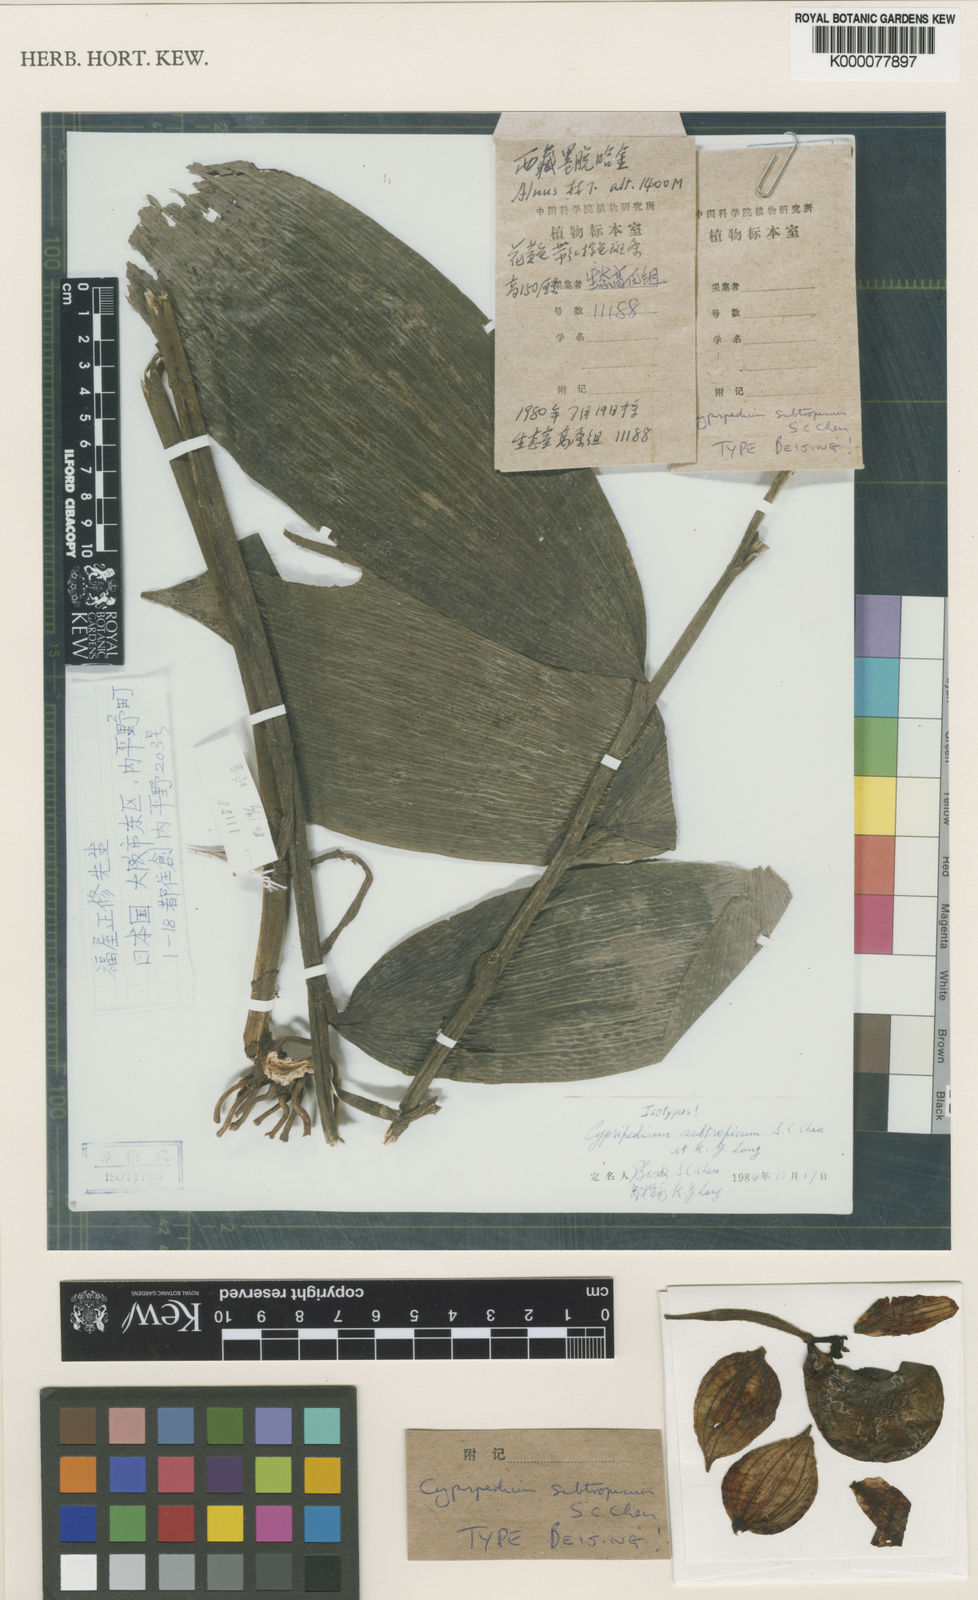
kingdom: Plantae
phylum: Tracheophyta
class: Liliopsida
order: Asparagales
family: Orchidaceae
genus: Cypripedium
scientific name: Cypripedium subtropicum
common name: Subtropical cypripedium
